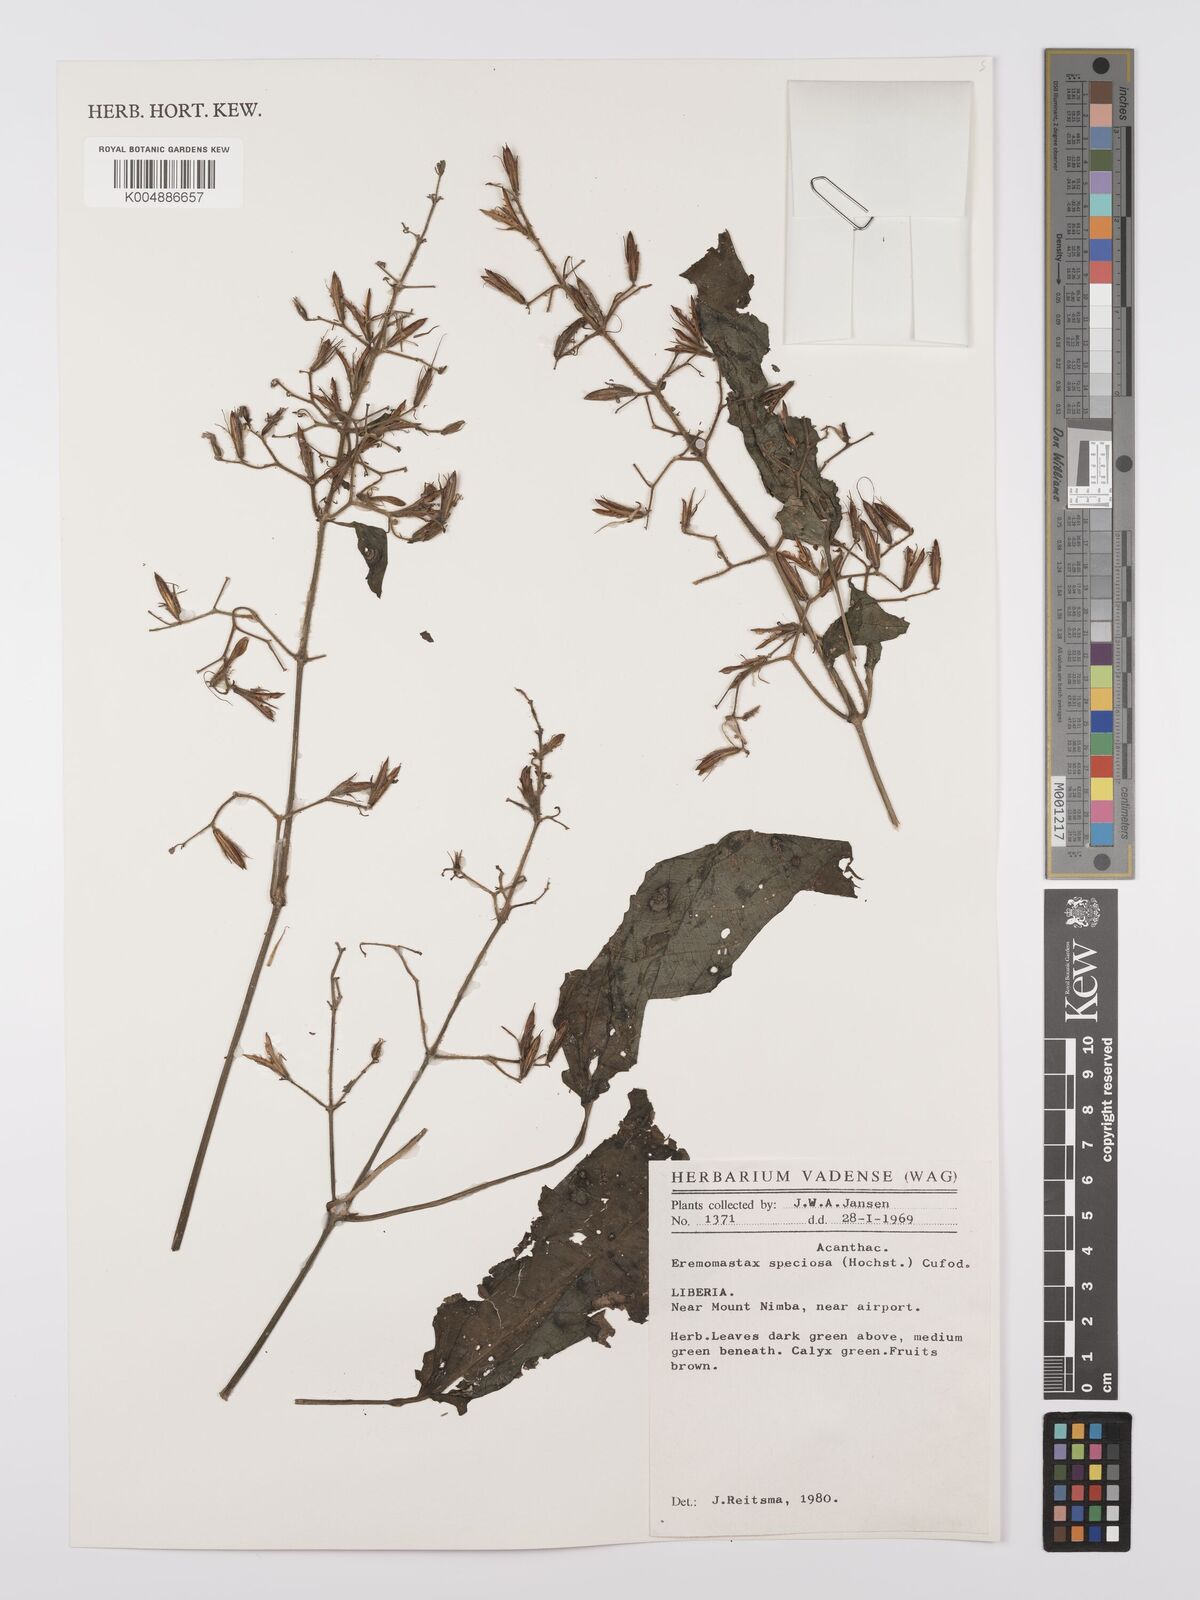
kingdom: Plantae
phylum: Tracheophyta
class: Magnoliopsida
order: Lamiales
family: Acanthaceae
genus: Eremomastax
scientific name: Eremomastax speciosa
